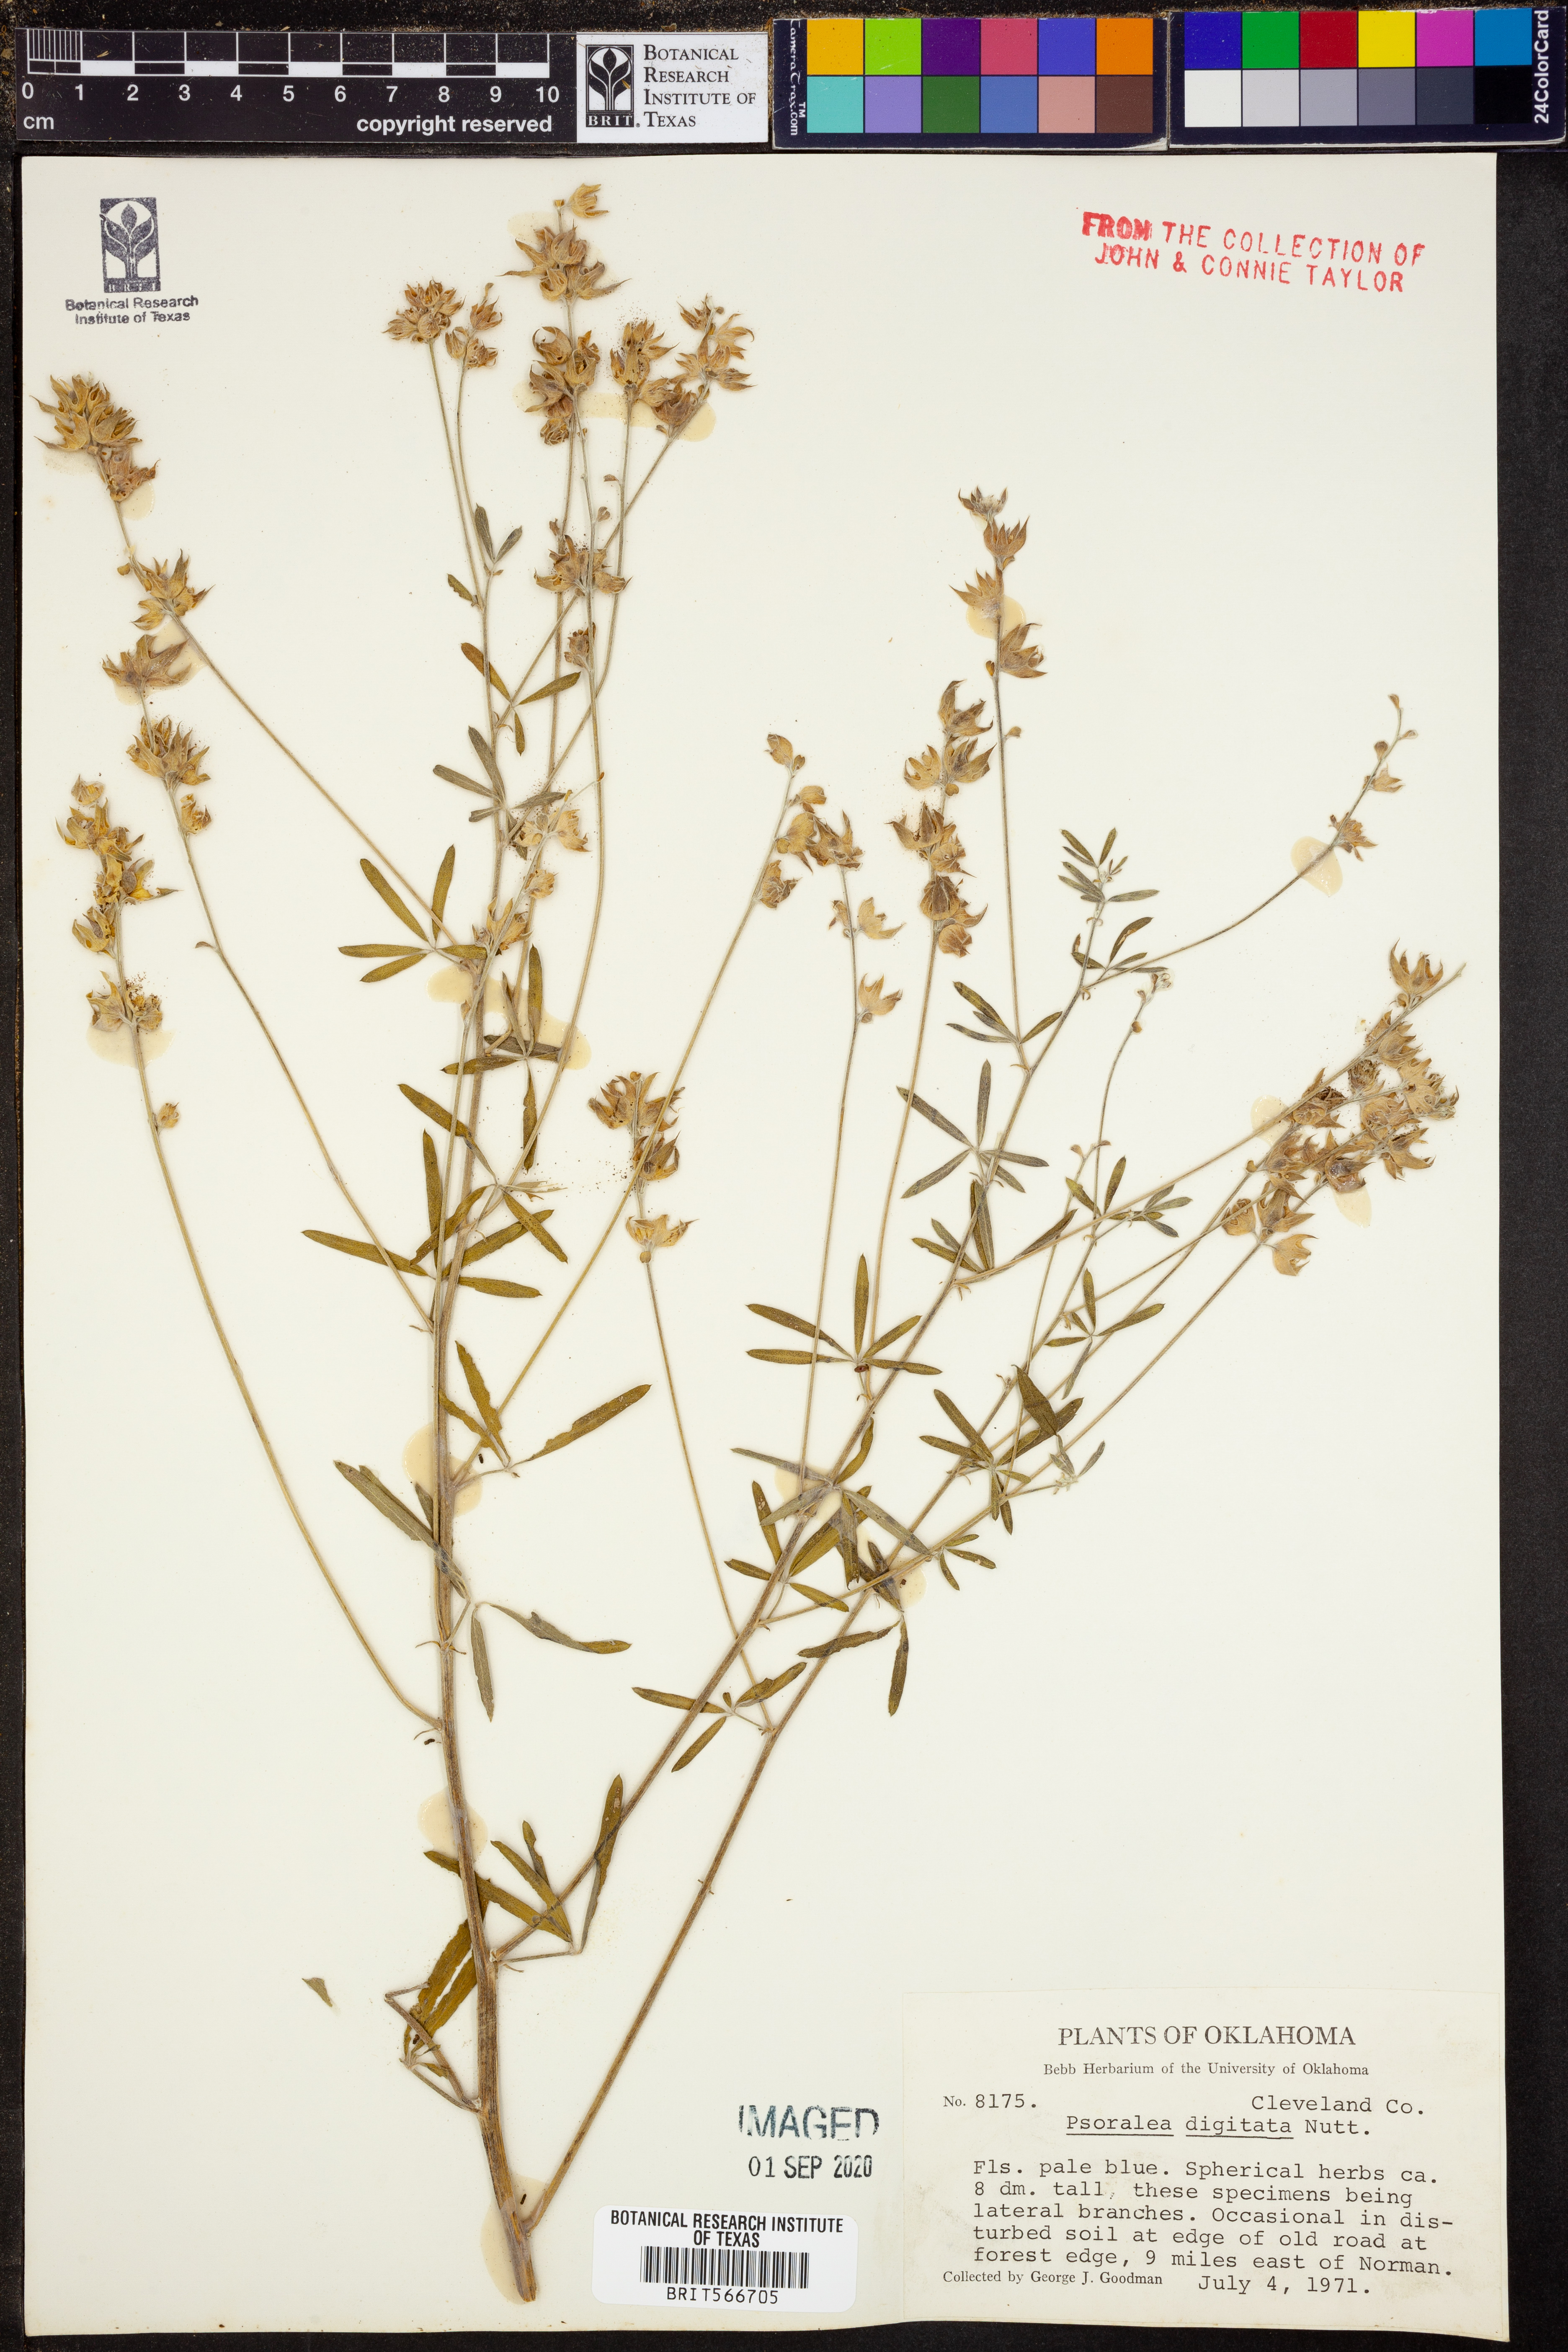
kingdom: Plantae
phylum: Tracheophyta
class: Magnoliopsida
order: Fabales
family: Fabaceae
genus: Pediomelum
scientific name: Pediomelum digitatum
